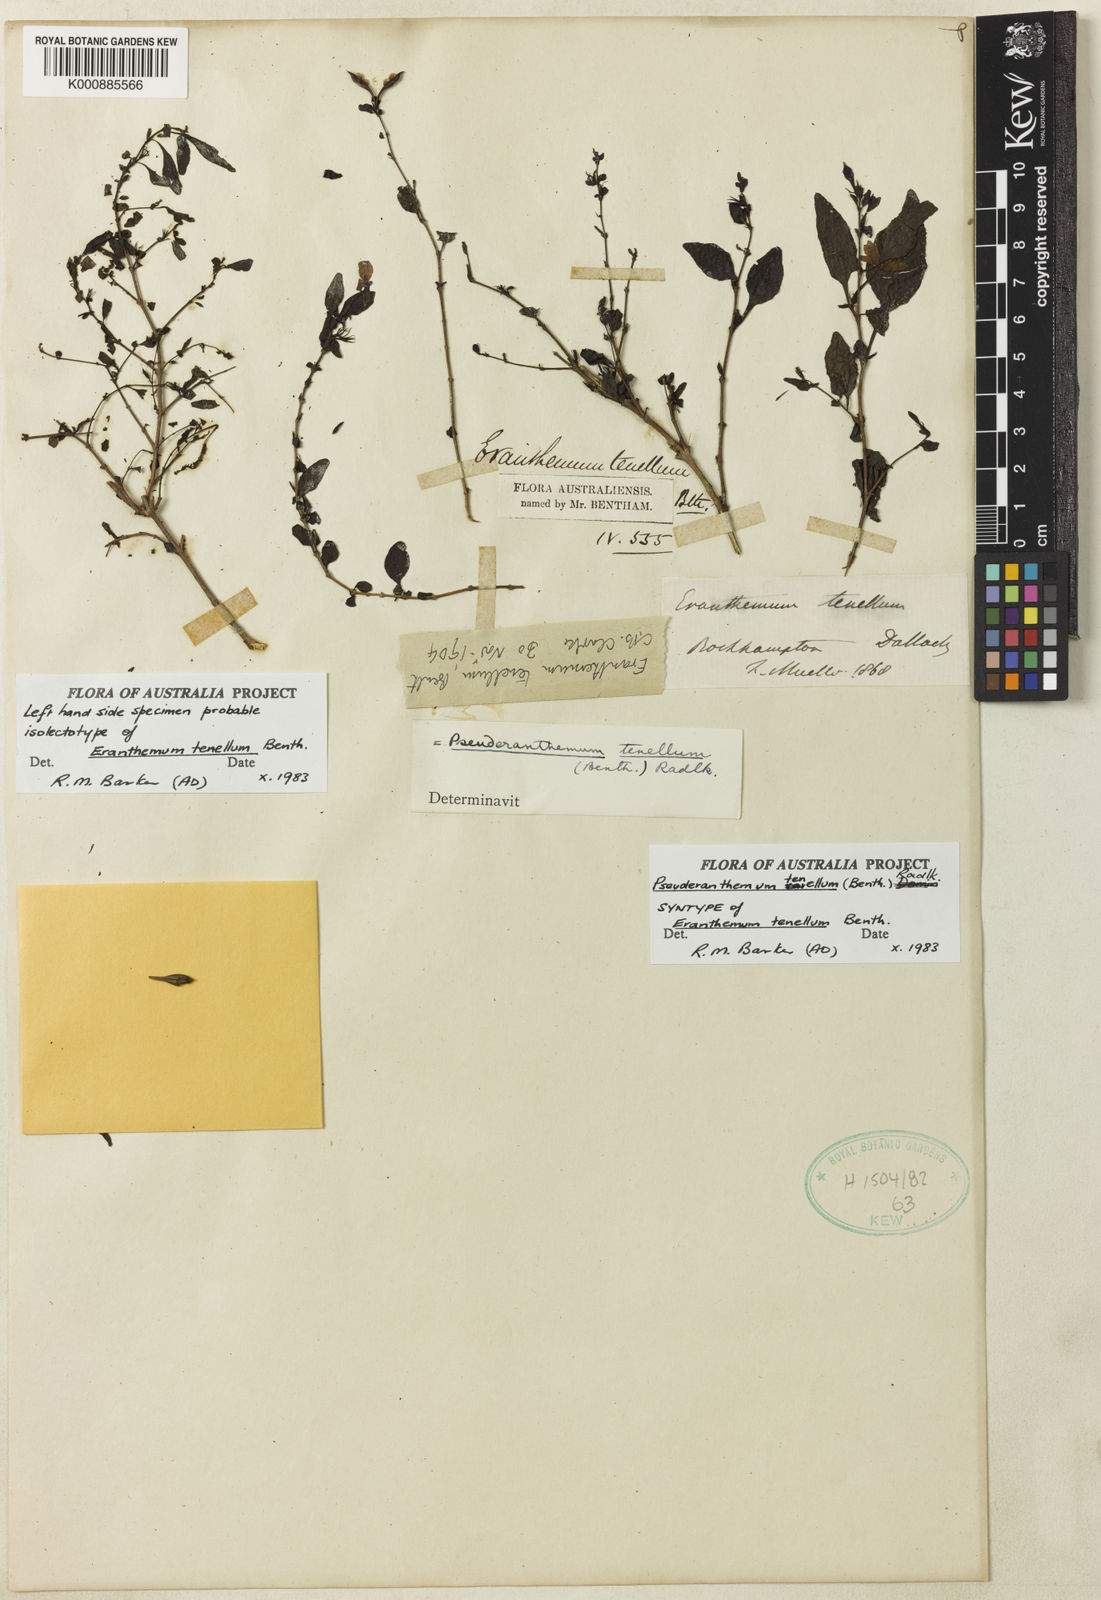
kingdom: Plantae
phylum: Tracheophyta
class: Magnoliopsida
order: Lamiales
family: Acanthaceae
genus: Pseuderanthemum
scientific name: Pseuderanthemum tenellum
